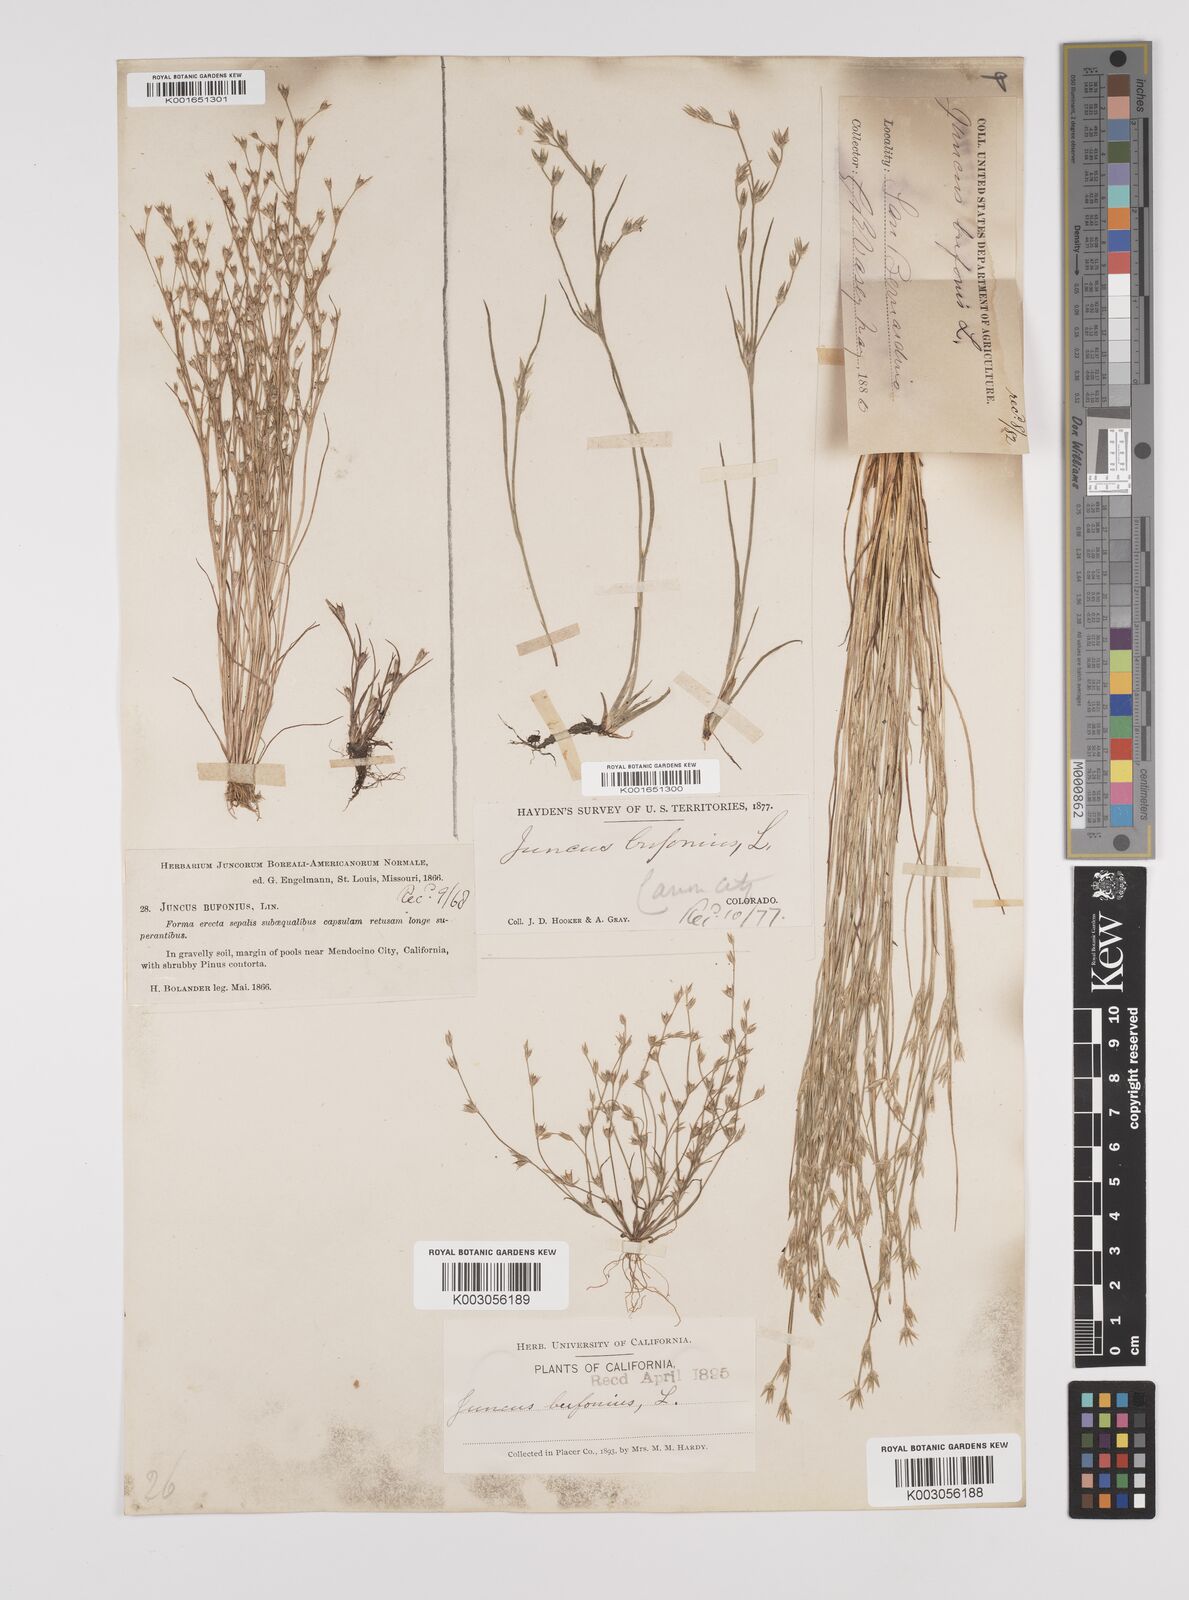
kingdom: Plantae
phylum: Tracheophyta
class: Liliopsida
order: Poales
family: Juncaceae
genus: Juncus
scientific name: Juncus bufonius
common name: Toad rush
